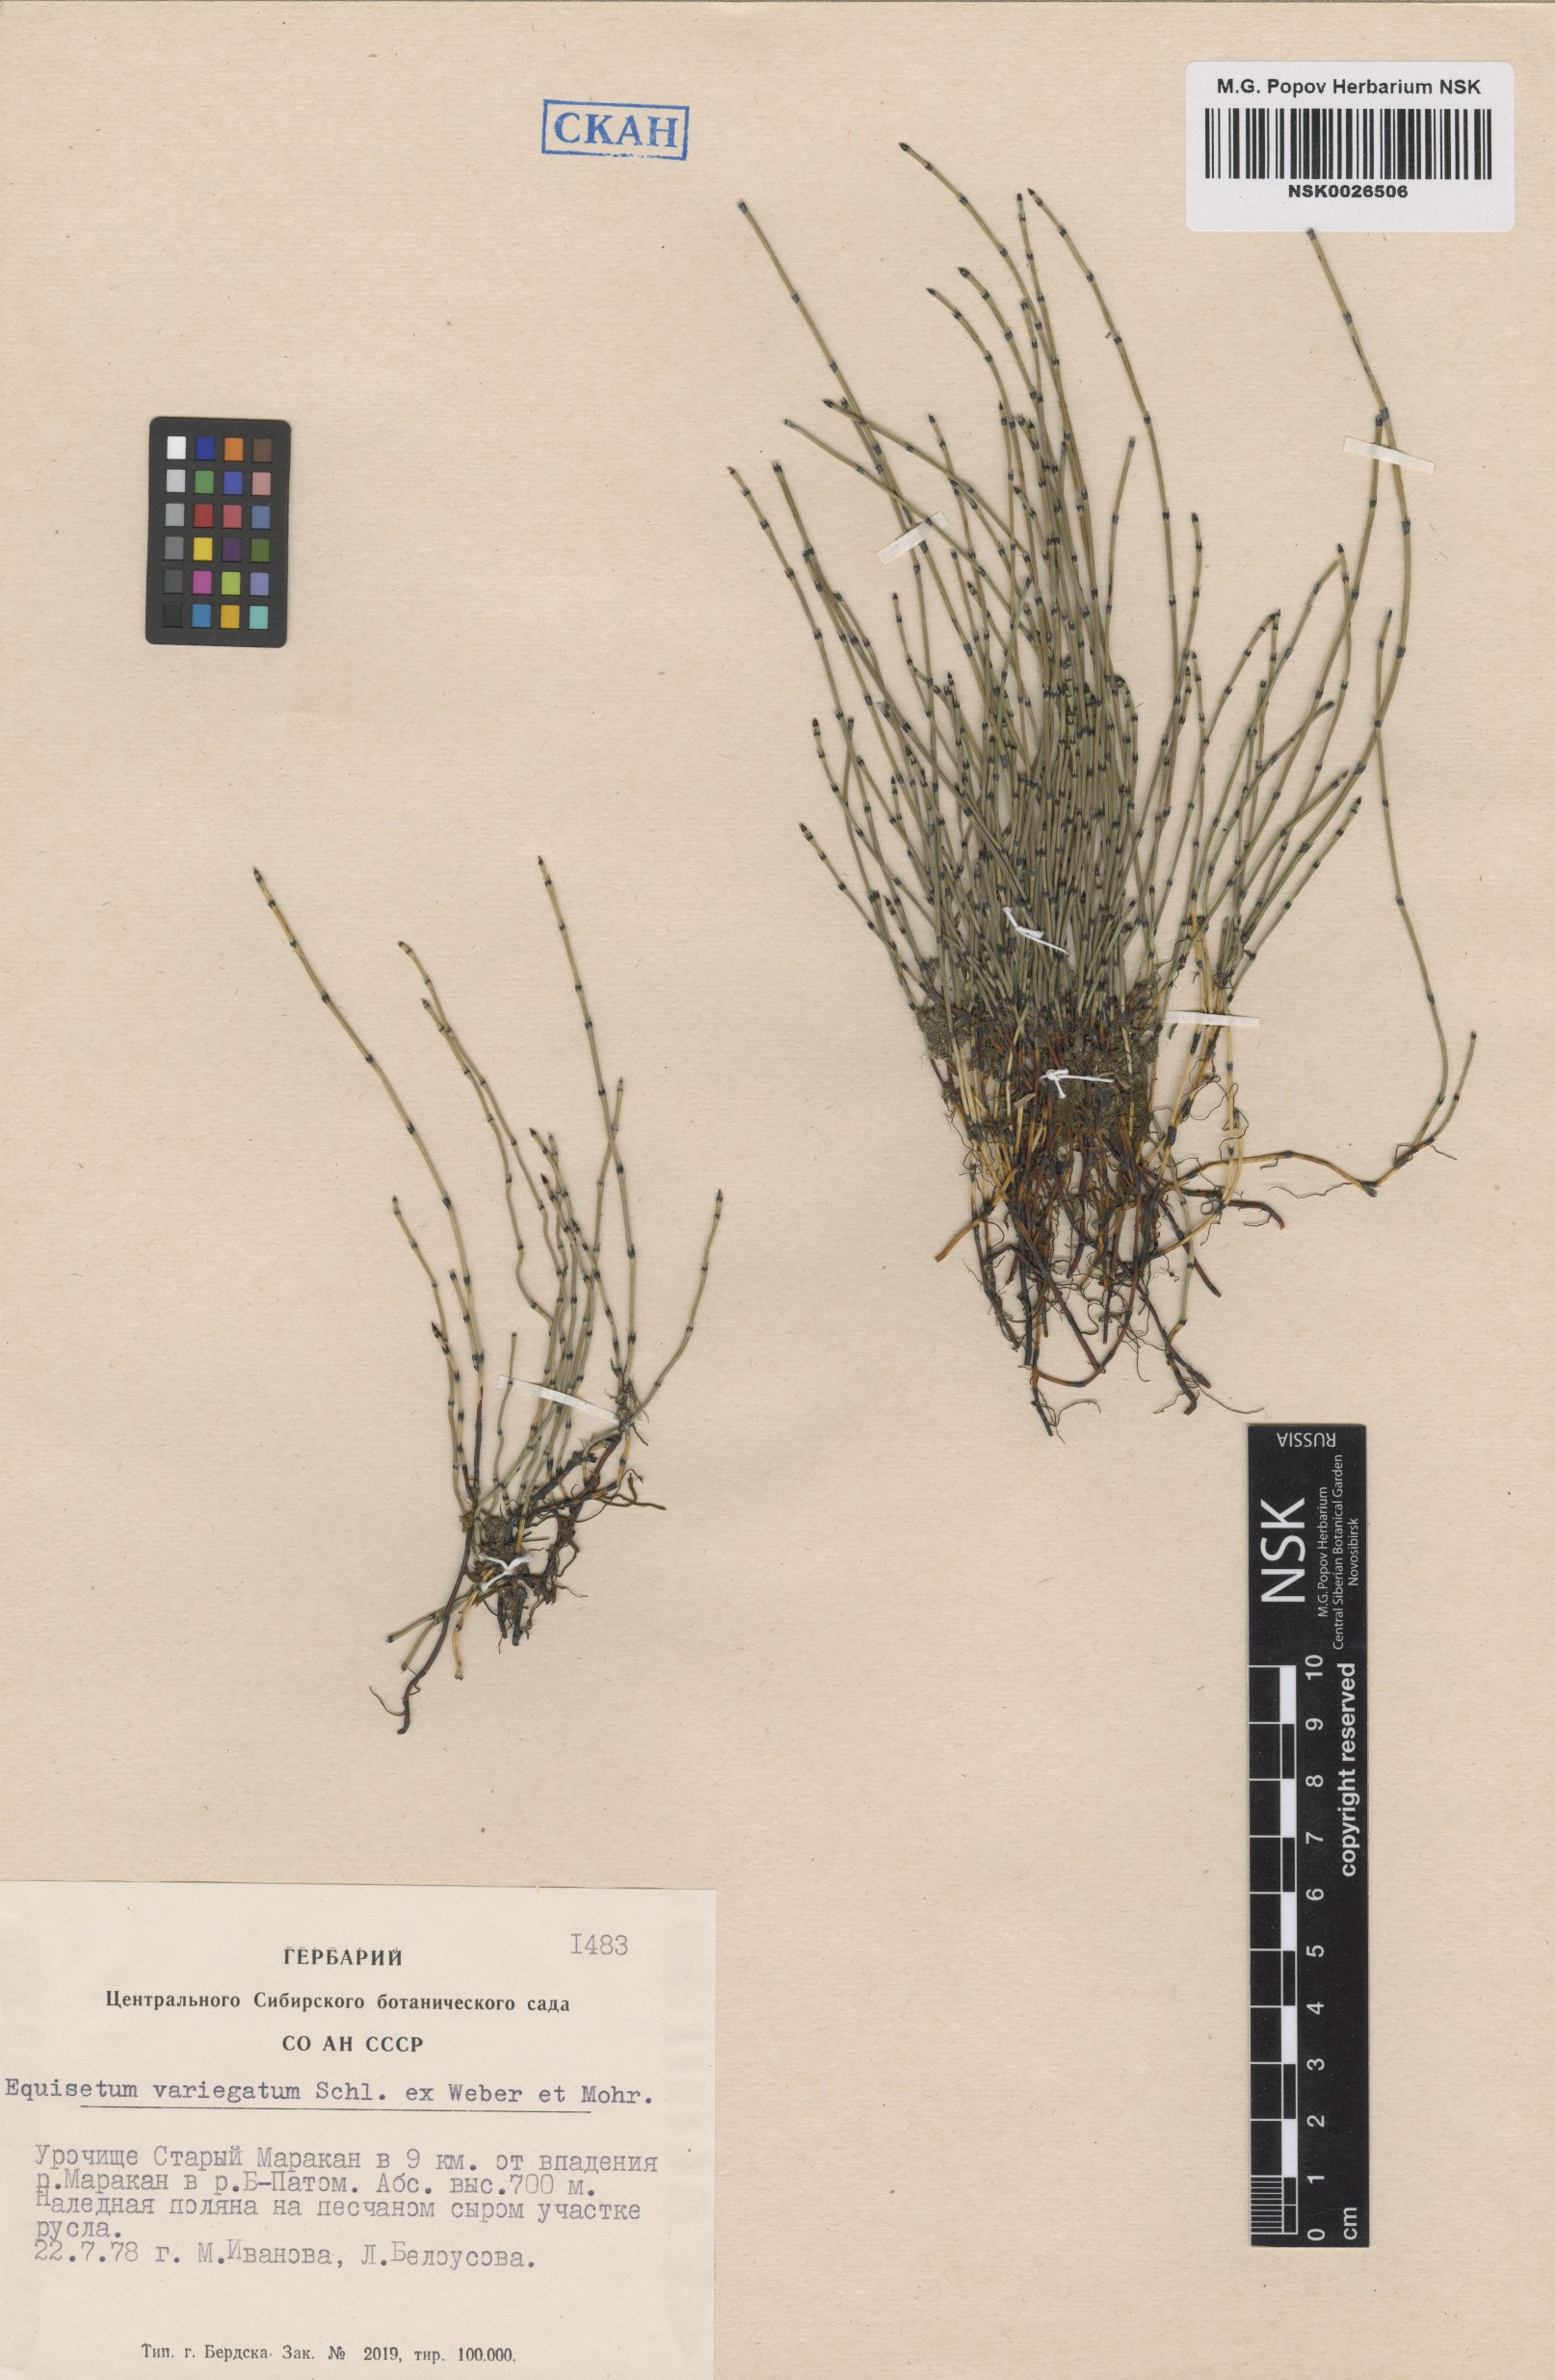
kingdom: Plantae
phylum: Tracheophyta
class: Polypodiopsida
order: Equisetales
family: Equisetaceae
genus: Equisetum
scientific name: Equisetum variegatum
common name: Variegated horsetail
